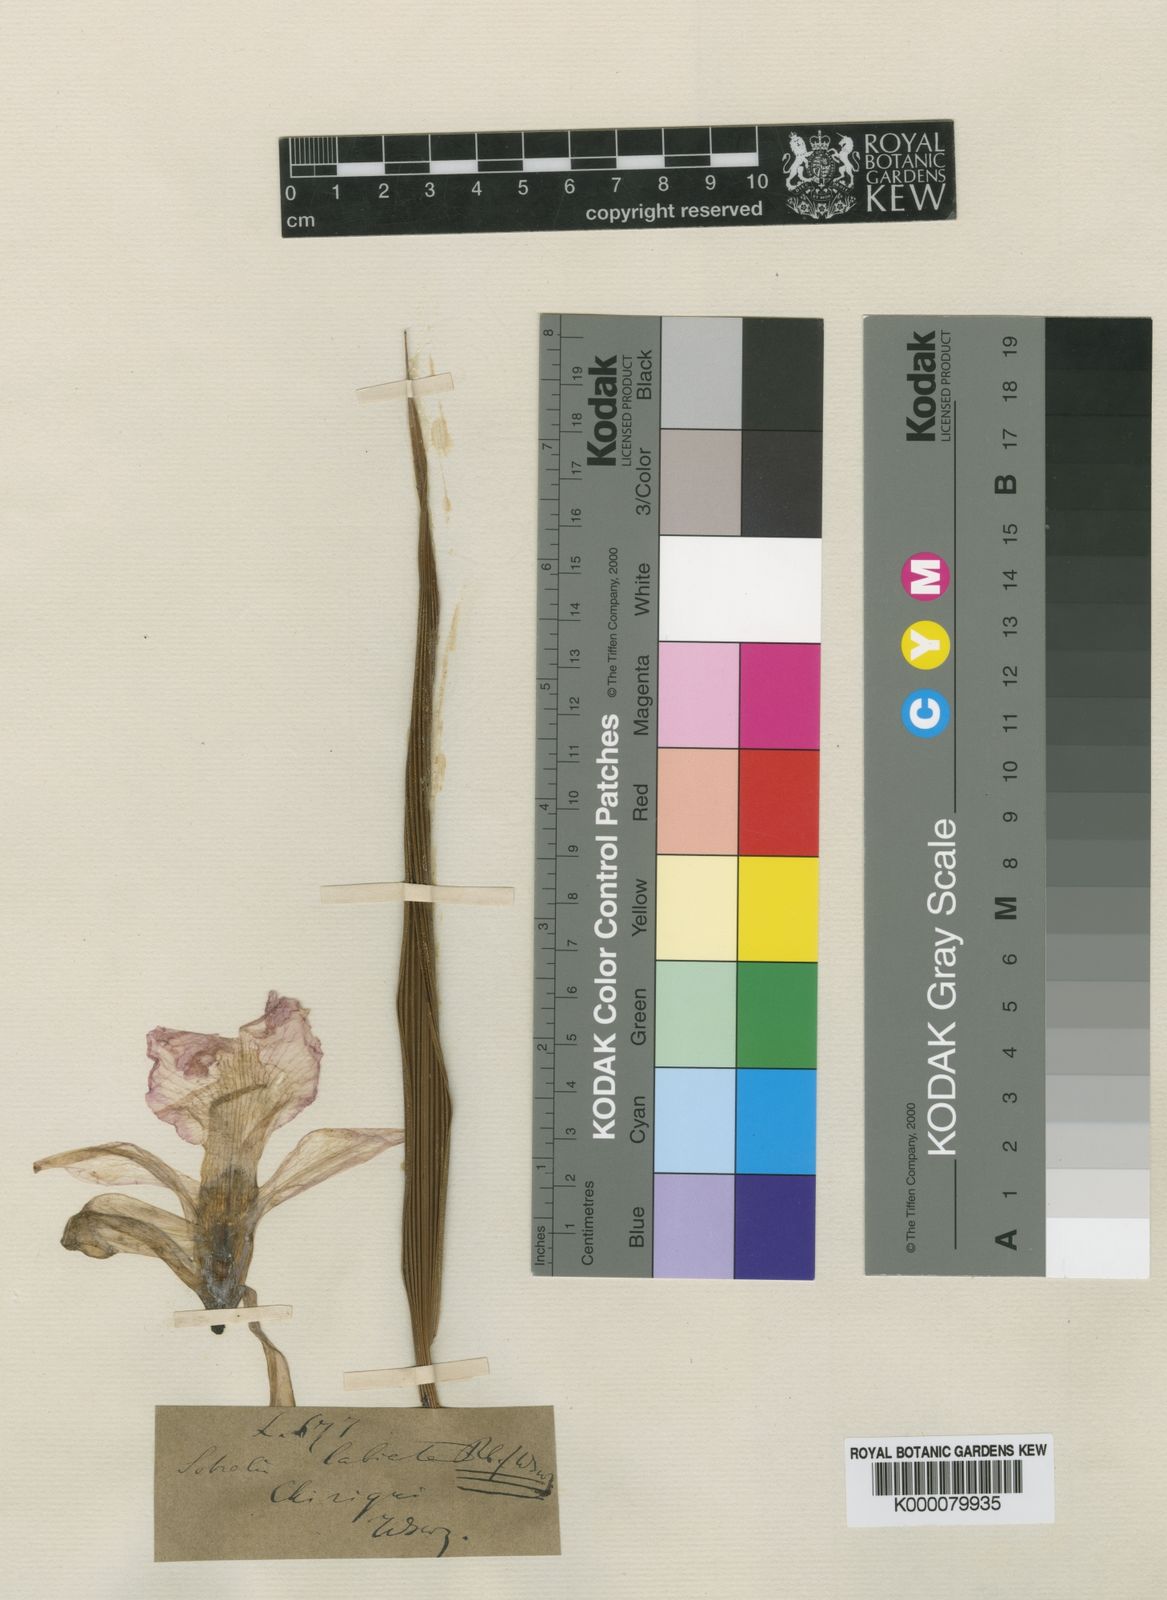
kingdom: Plantae
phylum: Tracheophyta
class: Liliopsida
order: Asparagales
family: Orchidaceae
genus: Sobralia
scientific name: Sobralia labiata
